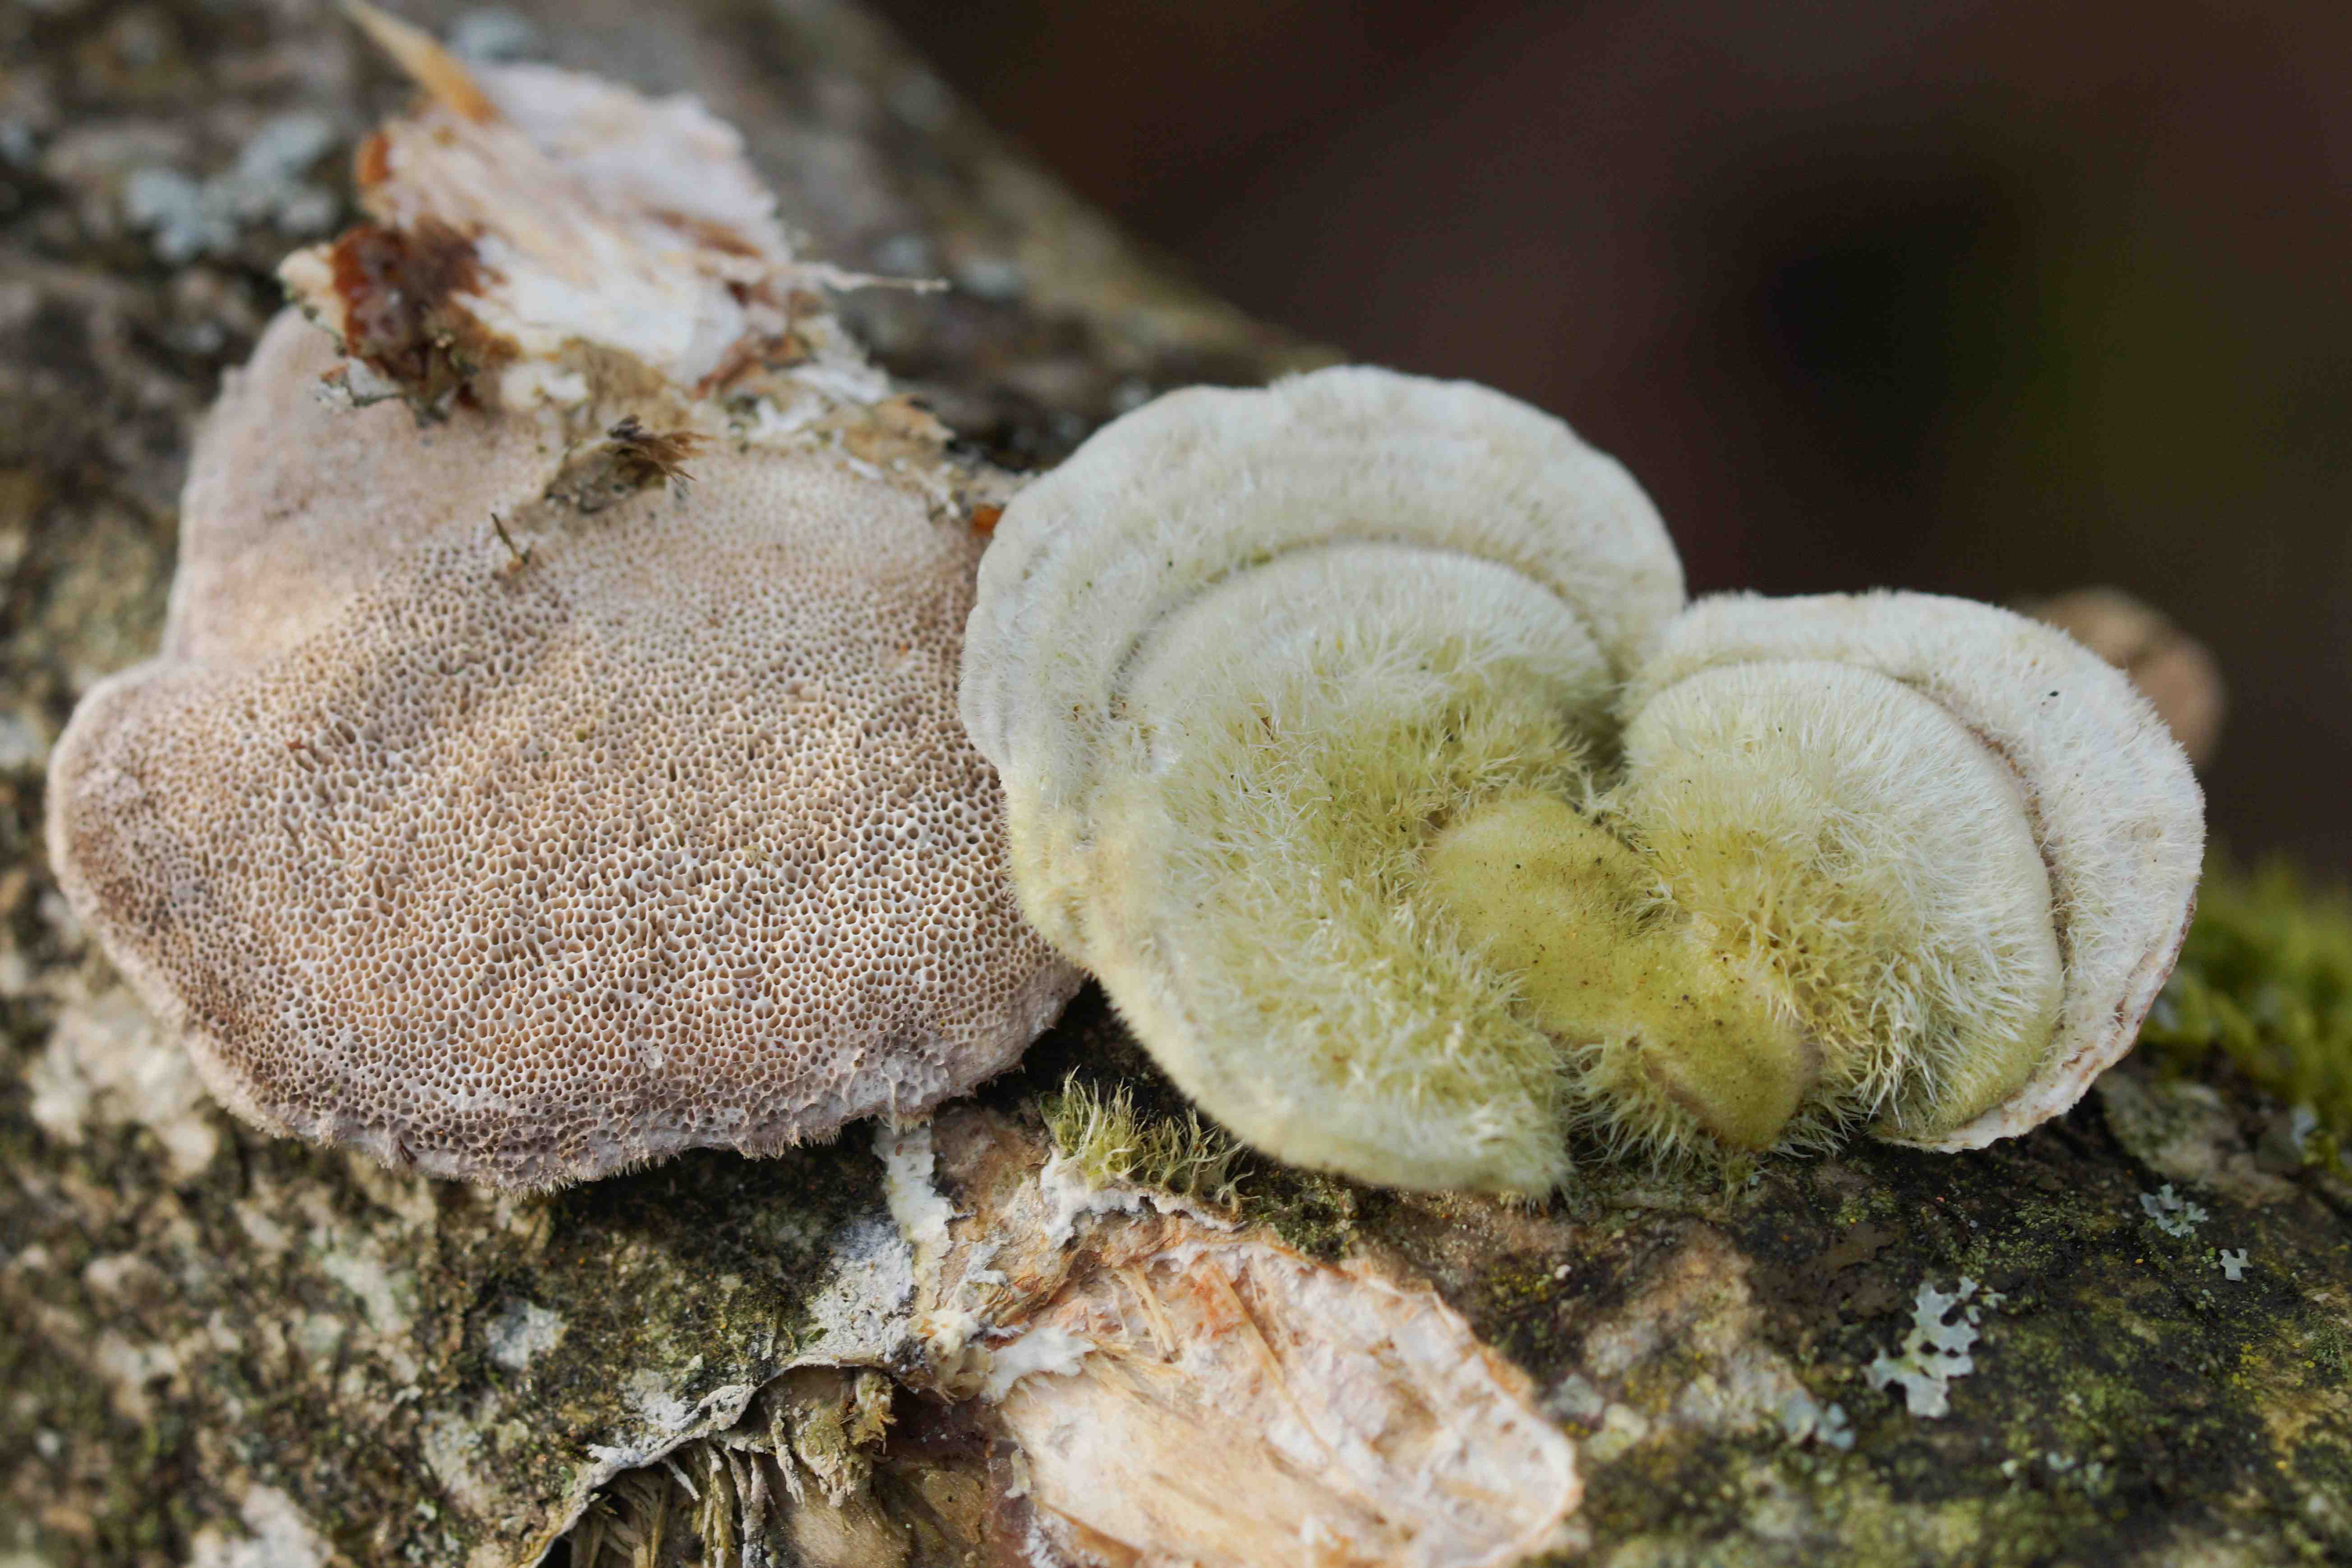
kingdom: Fungi
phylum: Basidiomycota
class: Agaricomycetes
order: Polyporales
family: Polyporaceae
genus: Trametes
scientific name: Trametes hirsuta
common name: håret læderporesvamp
